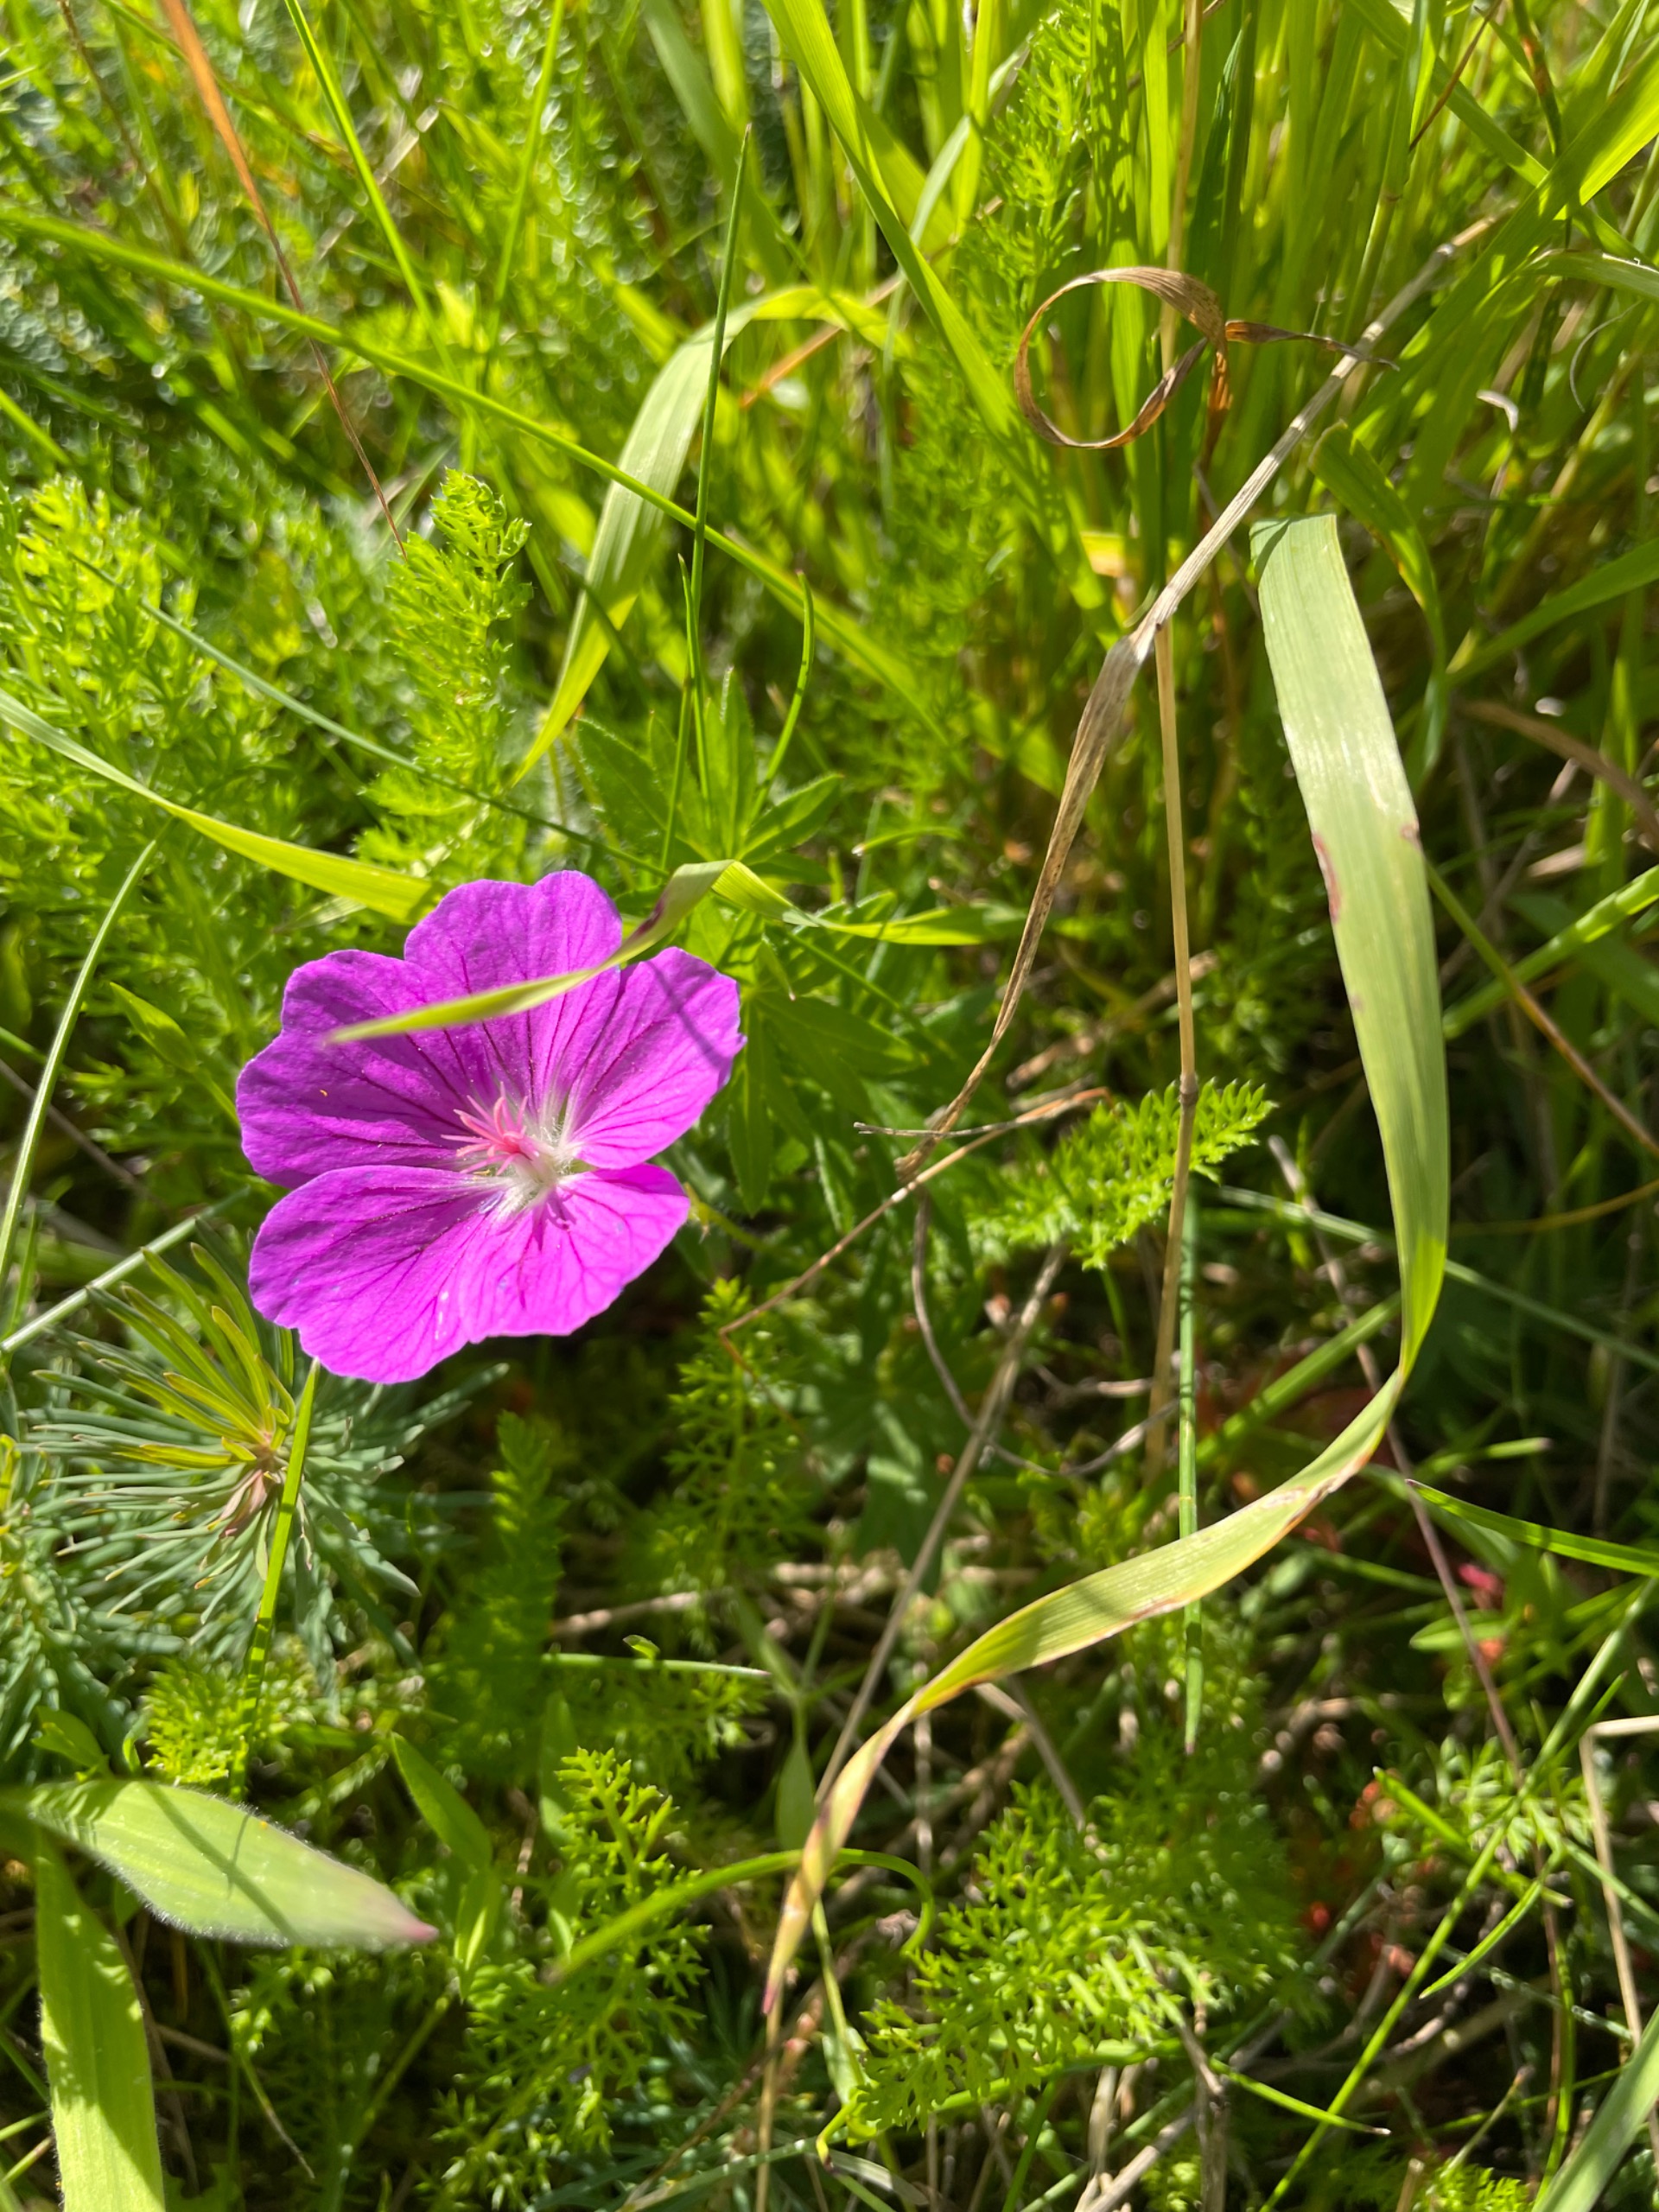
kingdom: Plantae
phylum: Tracheophyta
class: Magnoliopsida
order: Geraniales
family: Geraniaceae
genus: Geranium
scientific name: Geranium sanguineum
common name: Blodrød storkenæb
